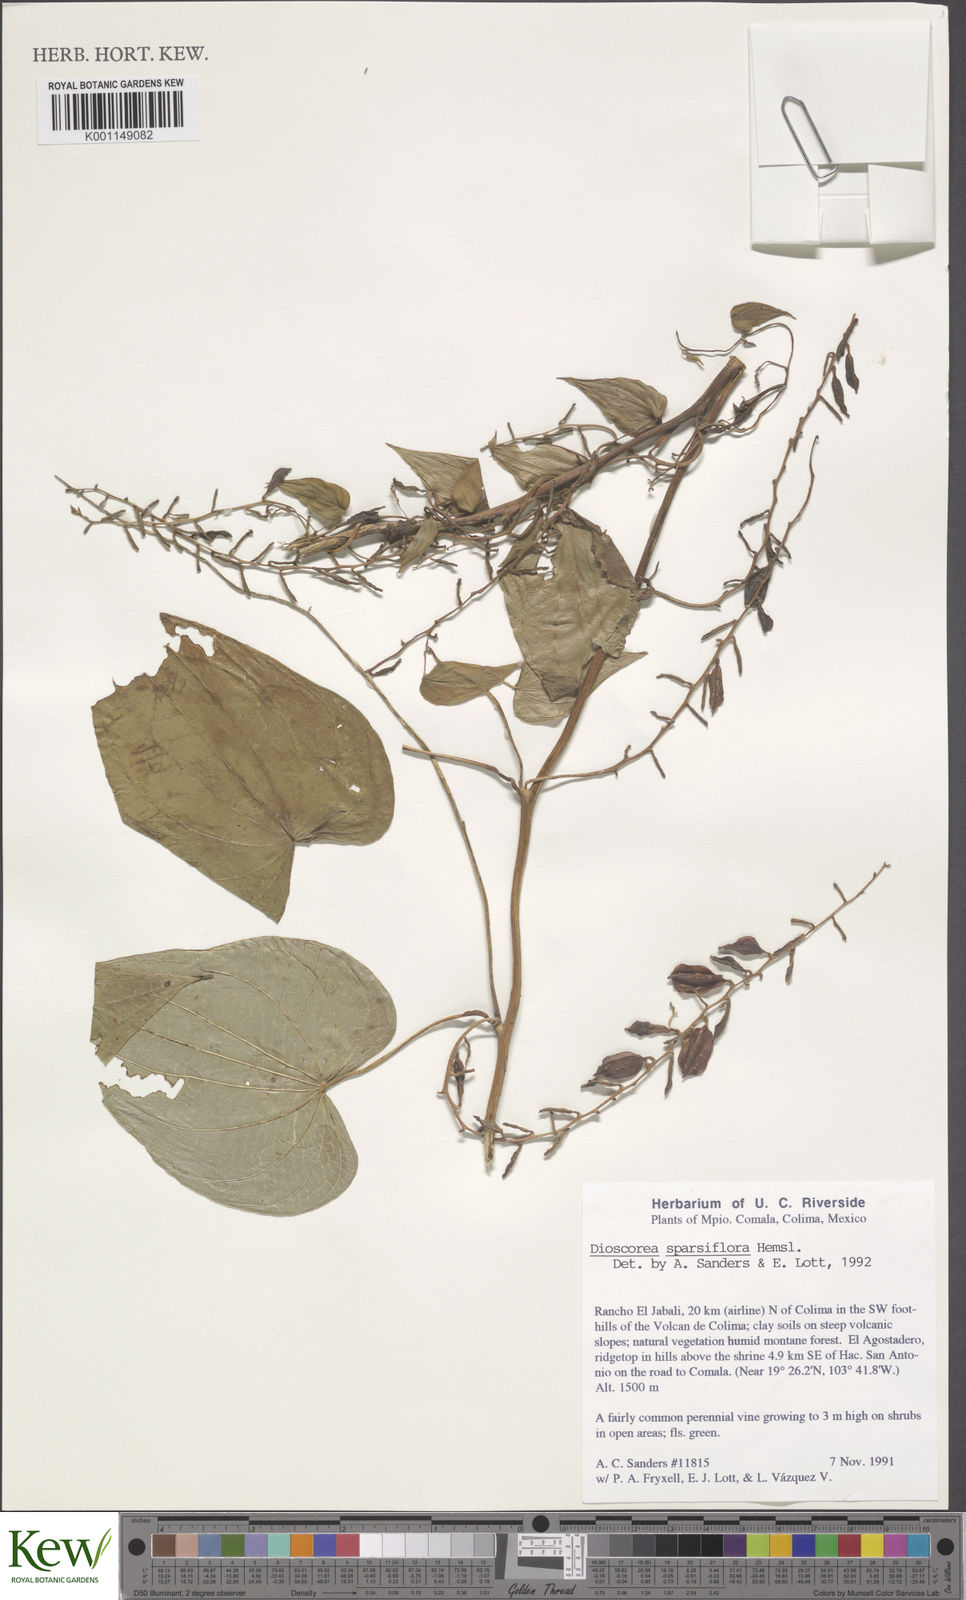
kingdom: Plantae
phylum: Tracheophyta
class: Liliopsida
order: Dioscoreales
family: Dioscoreaceae
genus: Dioscorea
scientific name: Dioscorea remotiflora
